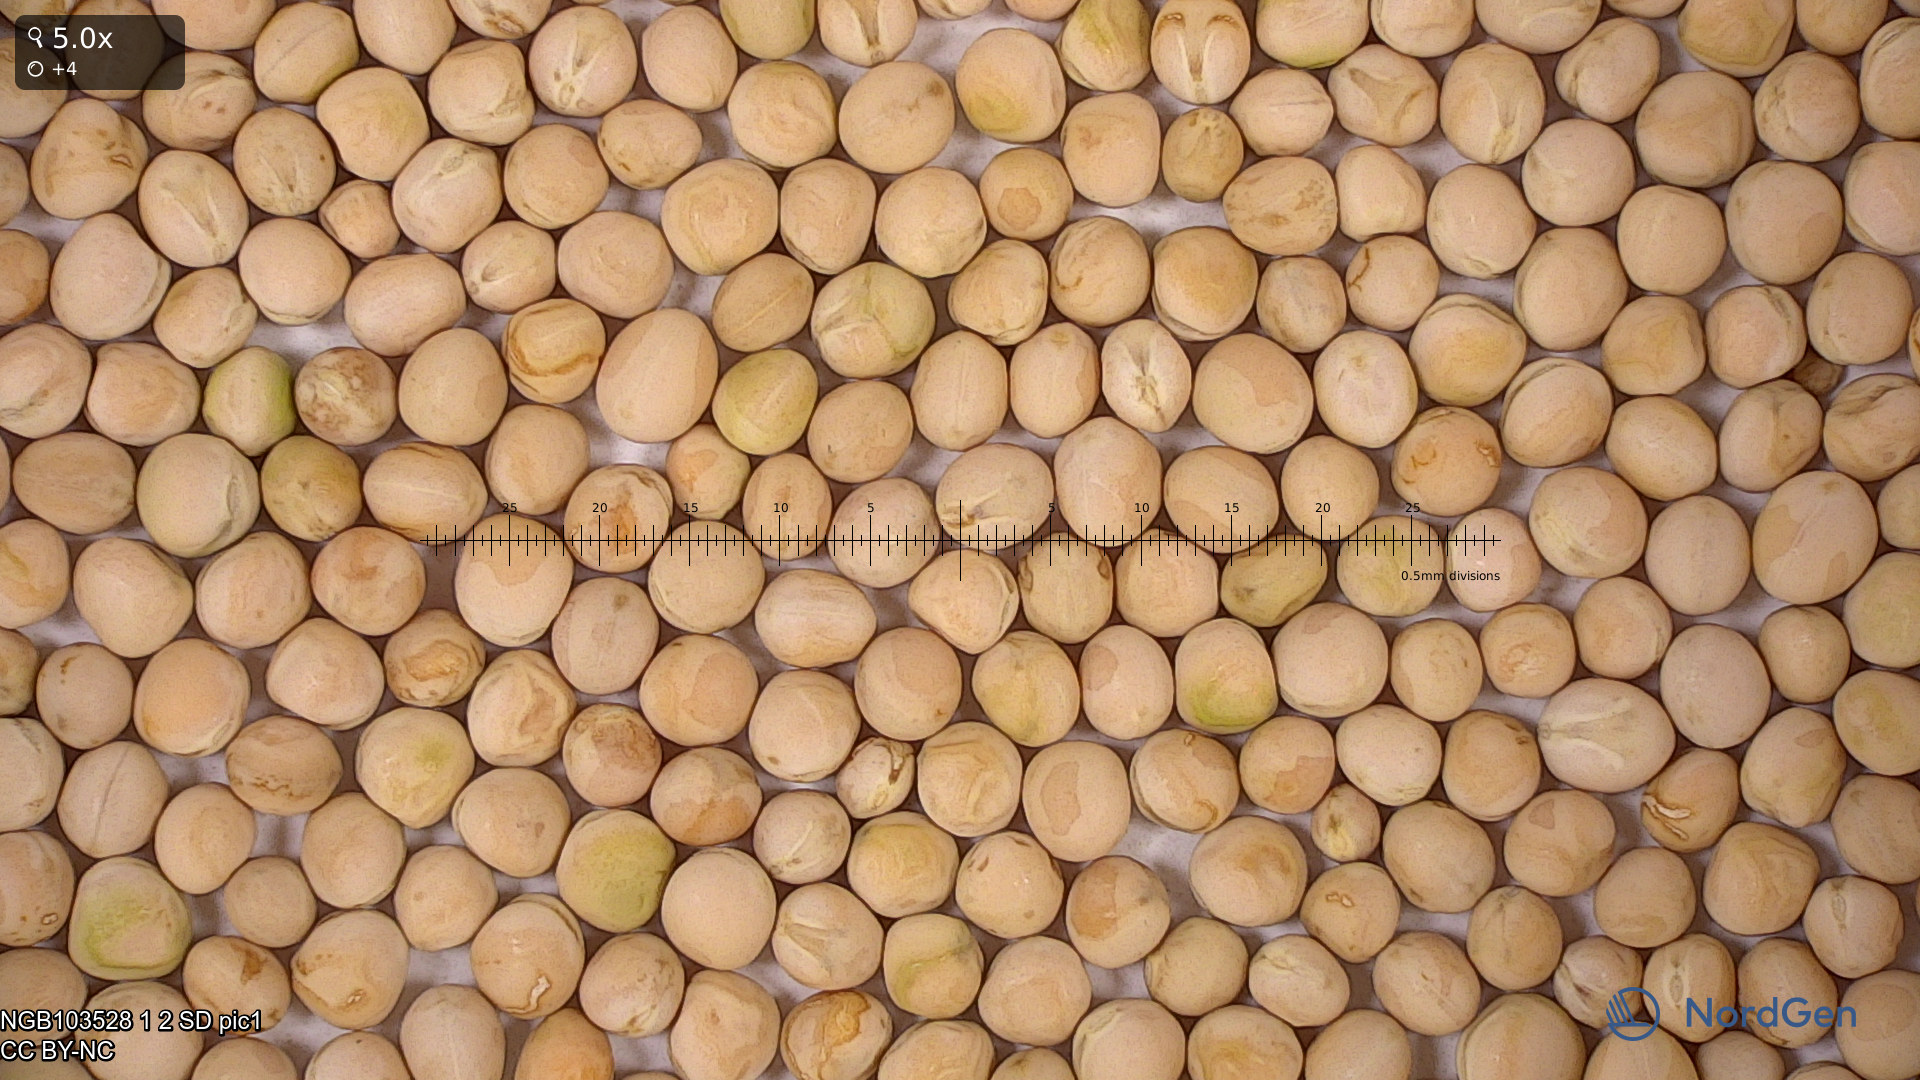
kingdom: Plantae
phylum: Tracheophyta
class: Magnoliopsida
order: Fabales
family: Fabaceae
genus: Lathyrus
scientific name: Lathyrus oleraceus
